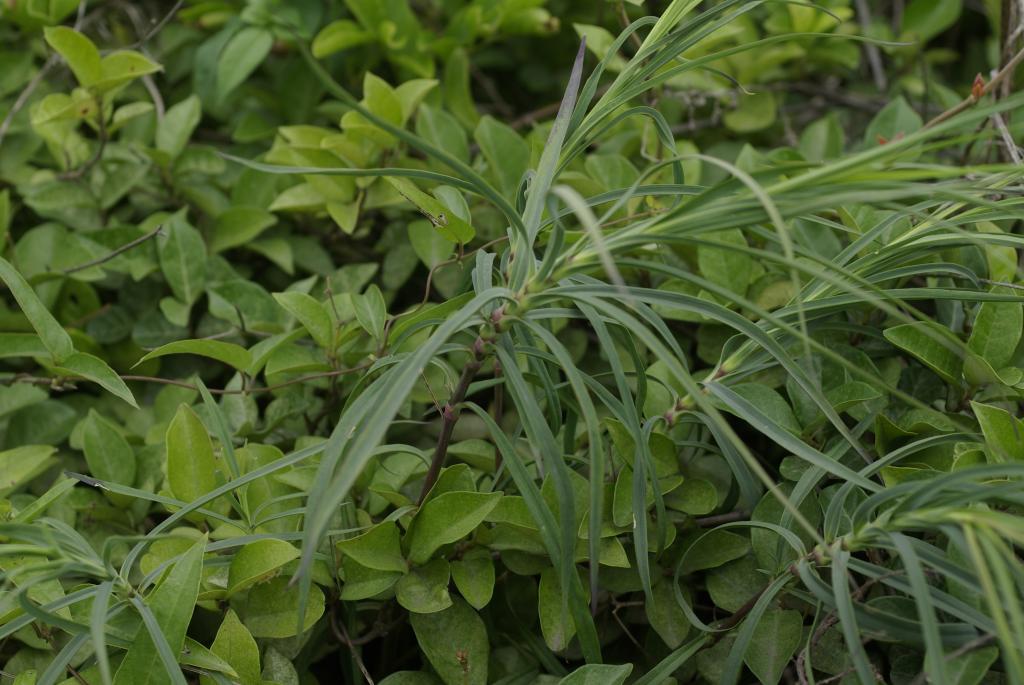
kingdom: Plantae
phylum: Tracheophyta
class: Liliopsida
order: Liliales
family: Liliaceae
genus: Lilium
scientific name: Lilium formosanum
